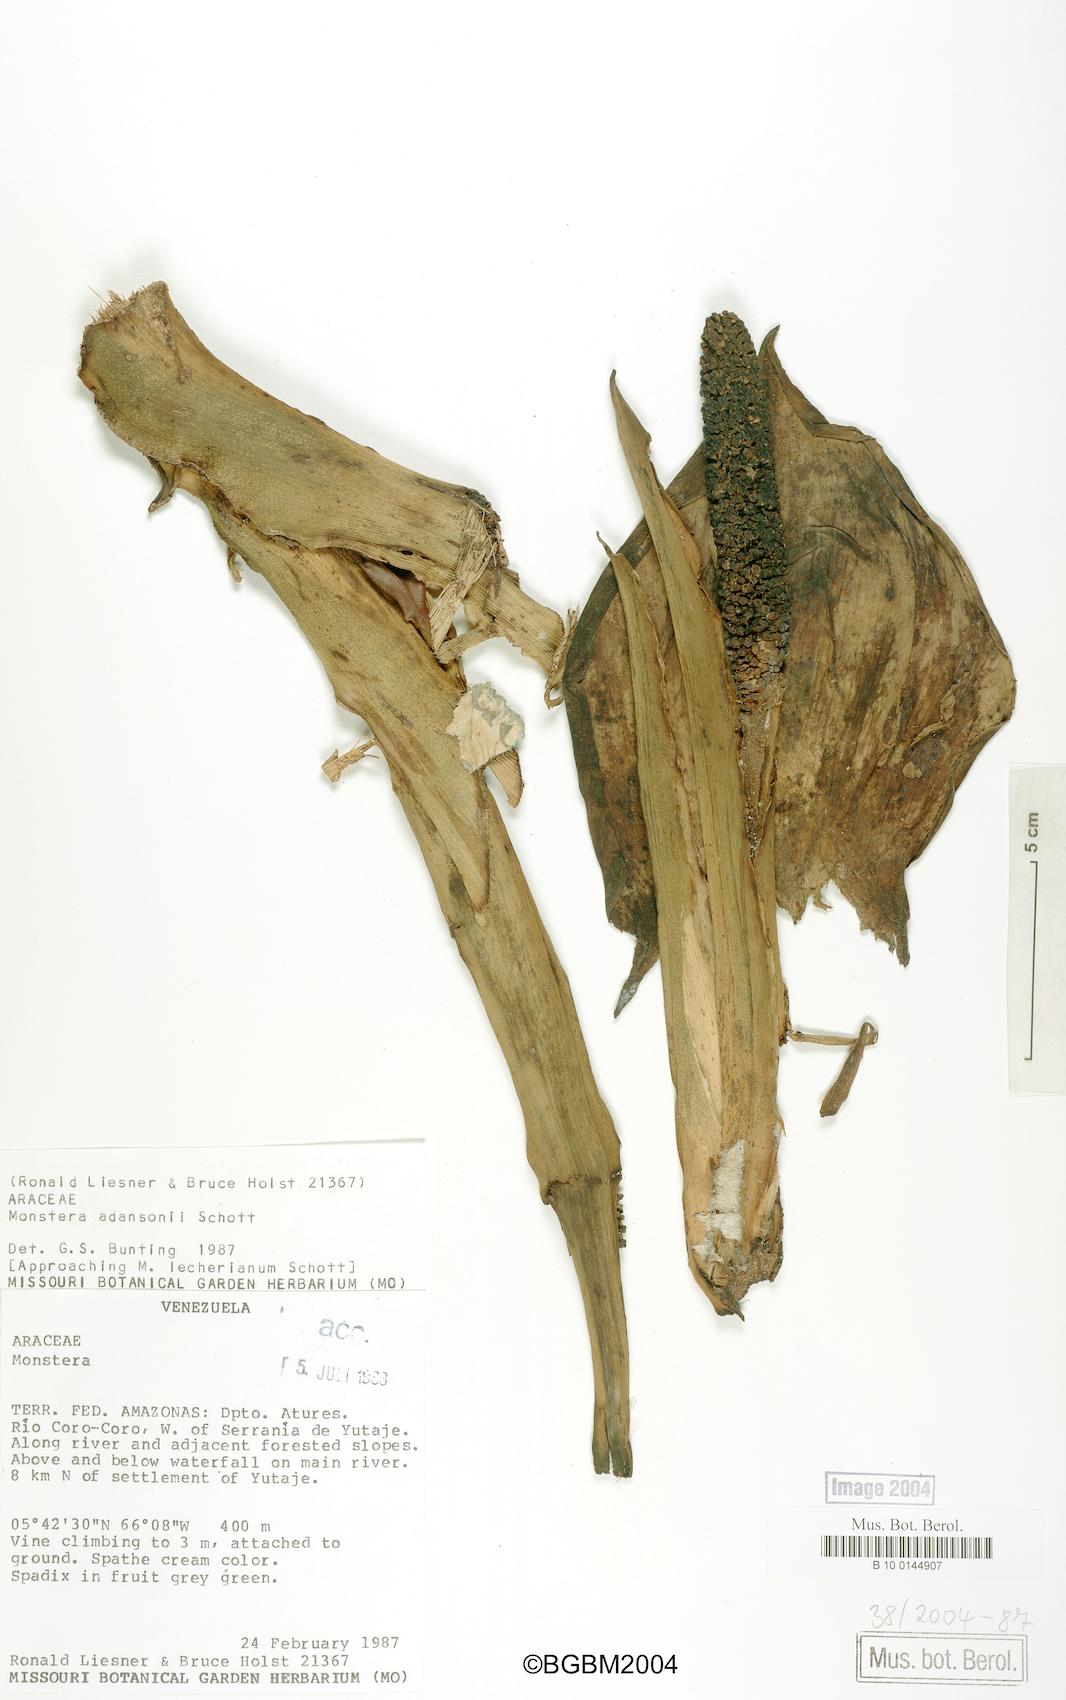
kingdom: Plantae
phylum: Tracheophyta
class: Liliopsida
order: Alismatales
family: Araceae
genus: Monstera
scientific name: Monstera adansonii
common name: Tarovine
